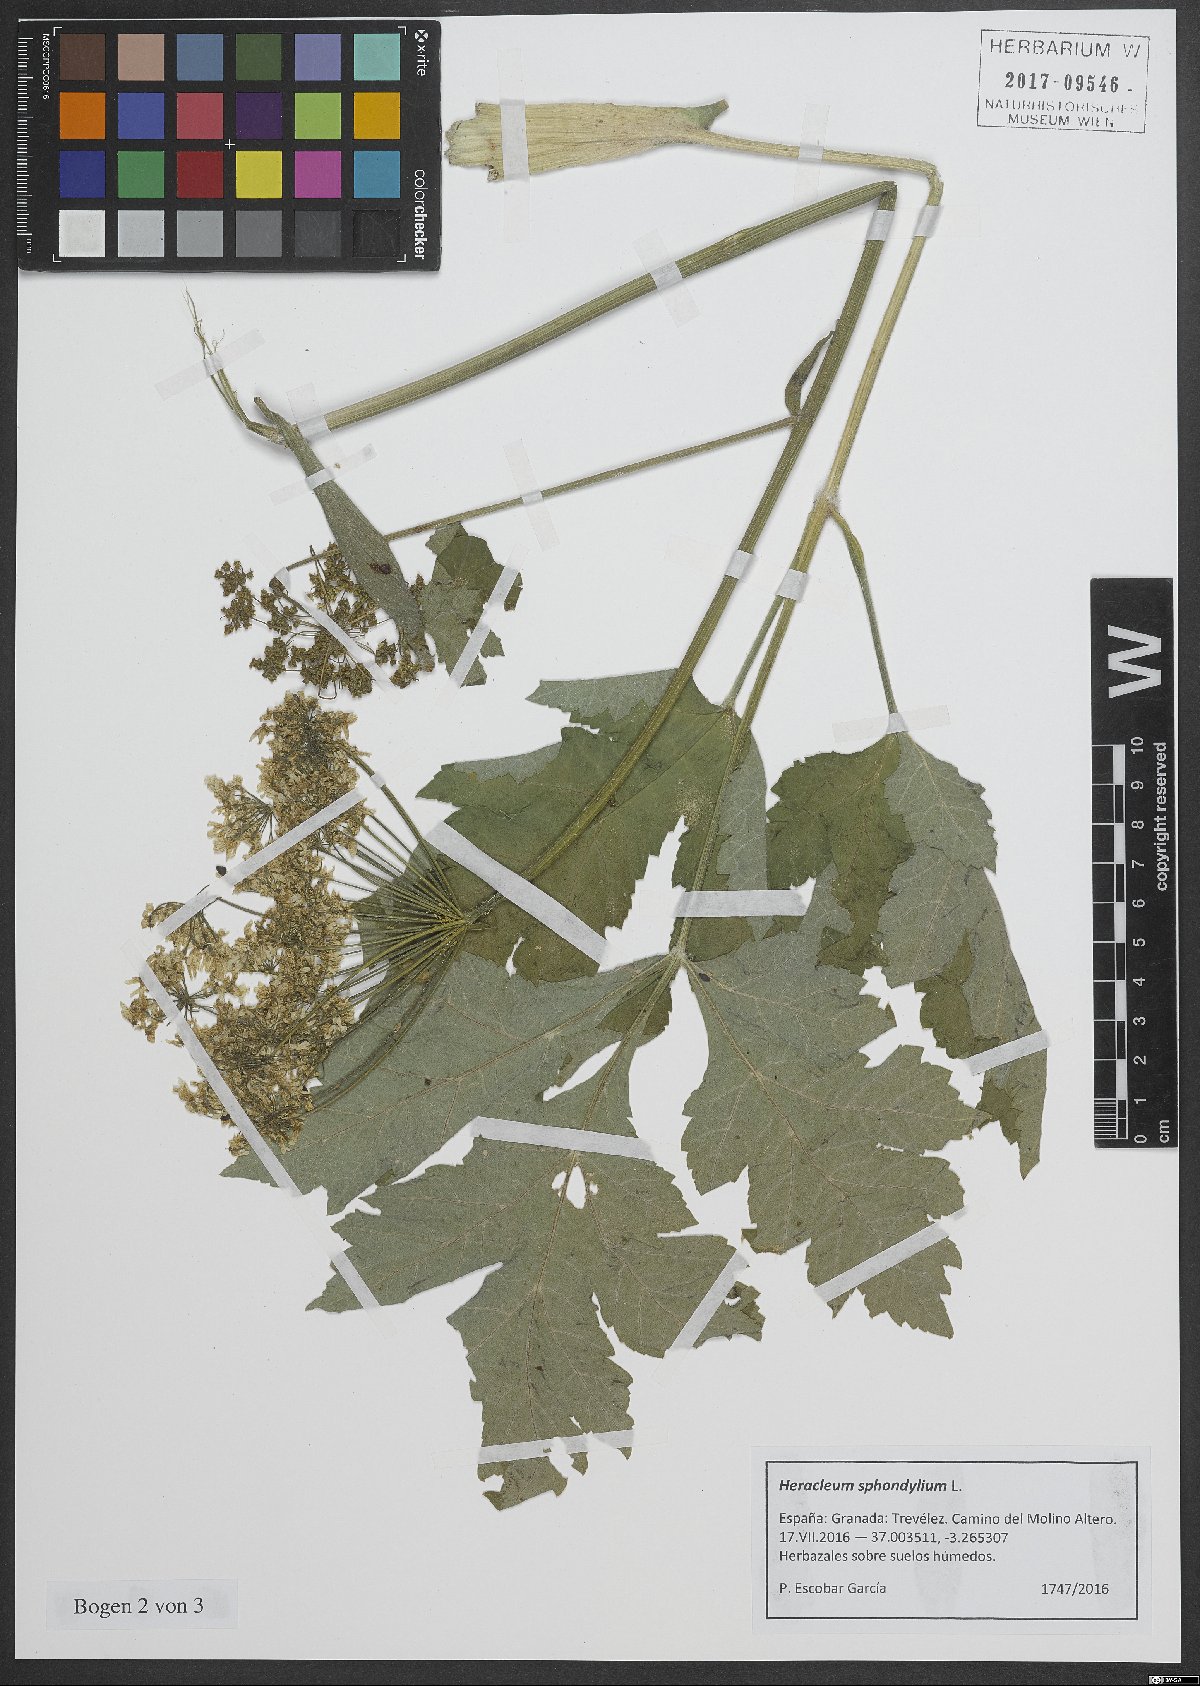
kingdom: Plantae
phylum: Tracheophyta
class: Magnoliopsida
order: Apiales
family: Apiaceae
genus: Heracleum
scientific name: Heracleum sphondylium
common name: Hogweed
